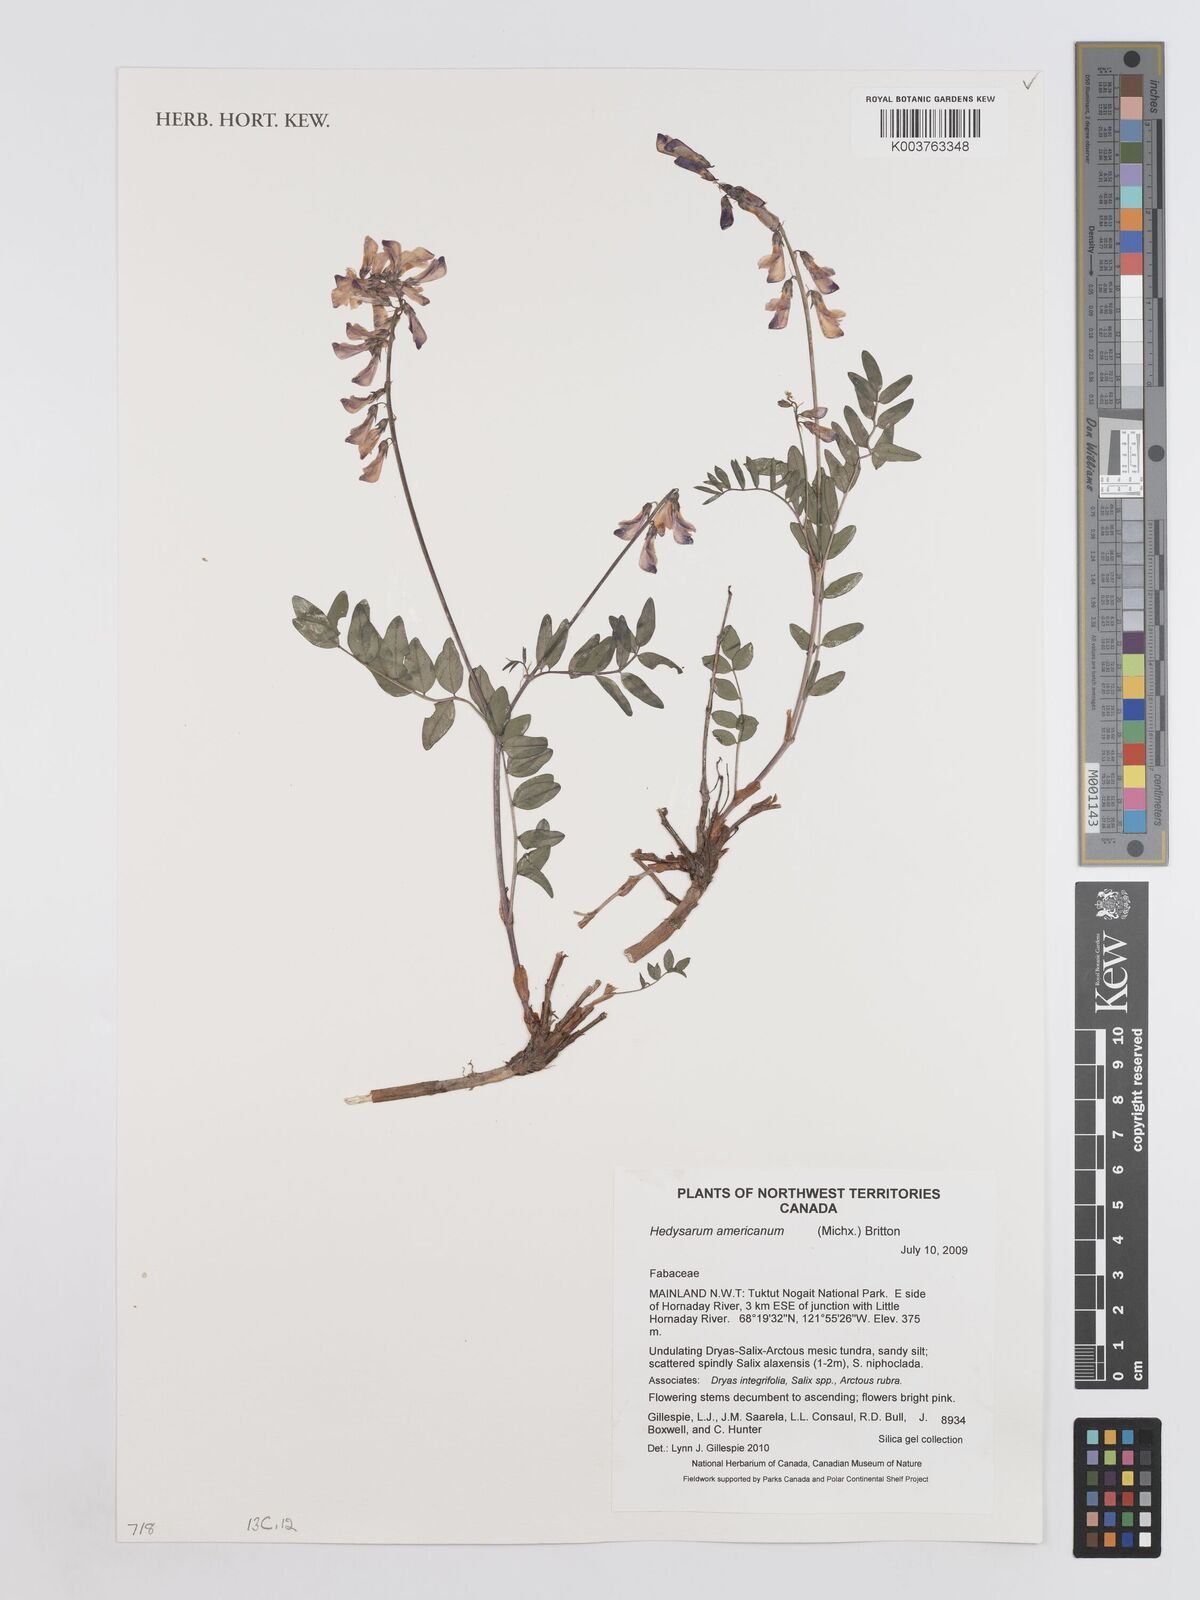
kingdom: Plantae
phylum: Tracheophyta
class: Magnoliopsida
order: Fabales
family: Fabaceae
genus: Hedysarum
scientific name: Hedysarum americanum
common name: Alpine hedysarum
